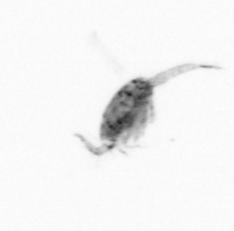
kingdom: Animalia
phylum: Arthropoda
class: Copepoda
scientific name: Copepoda
